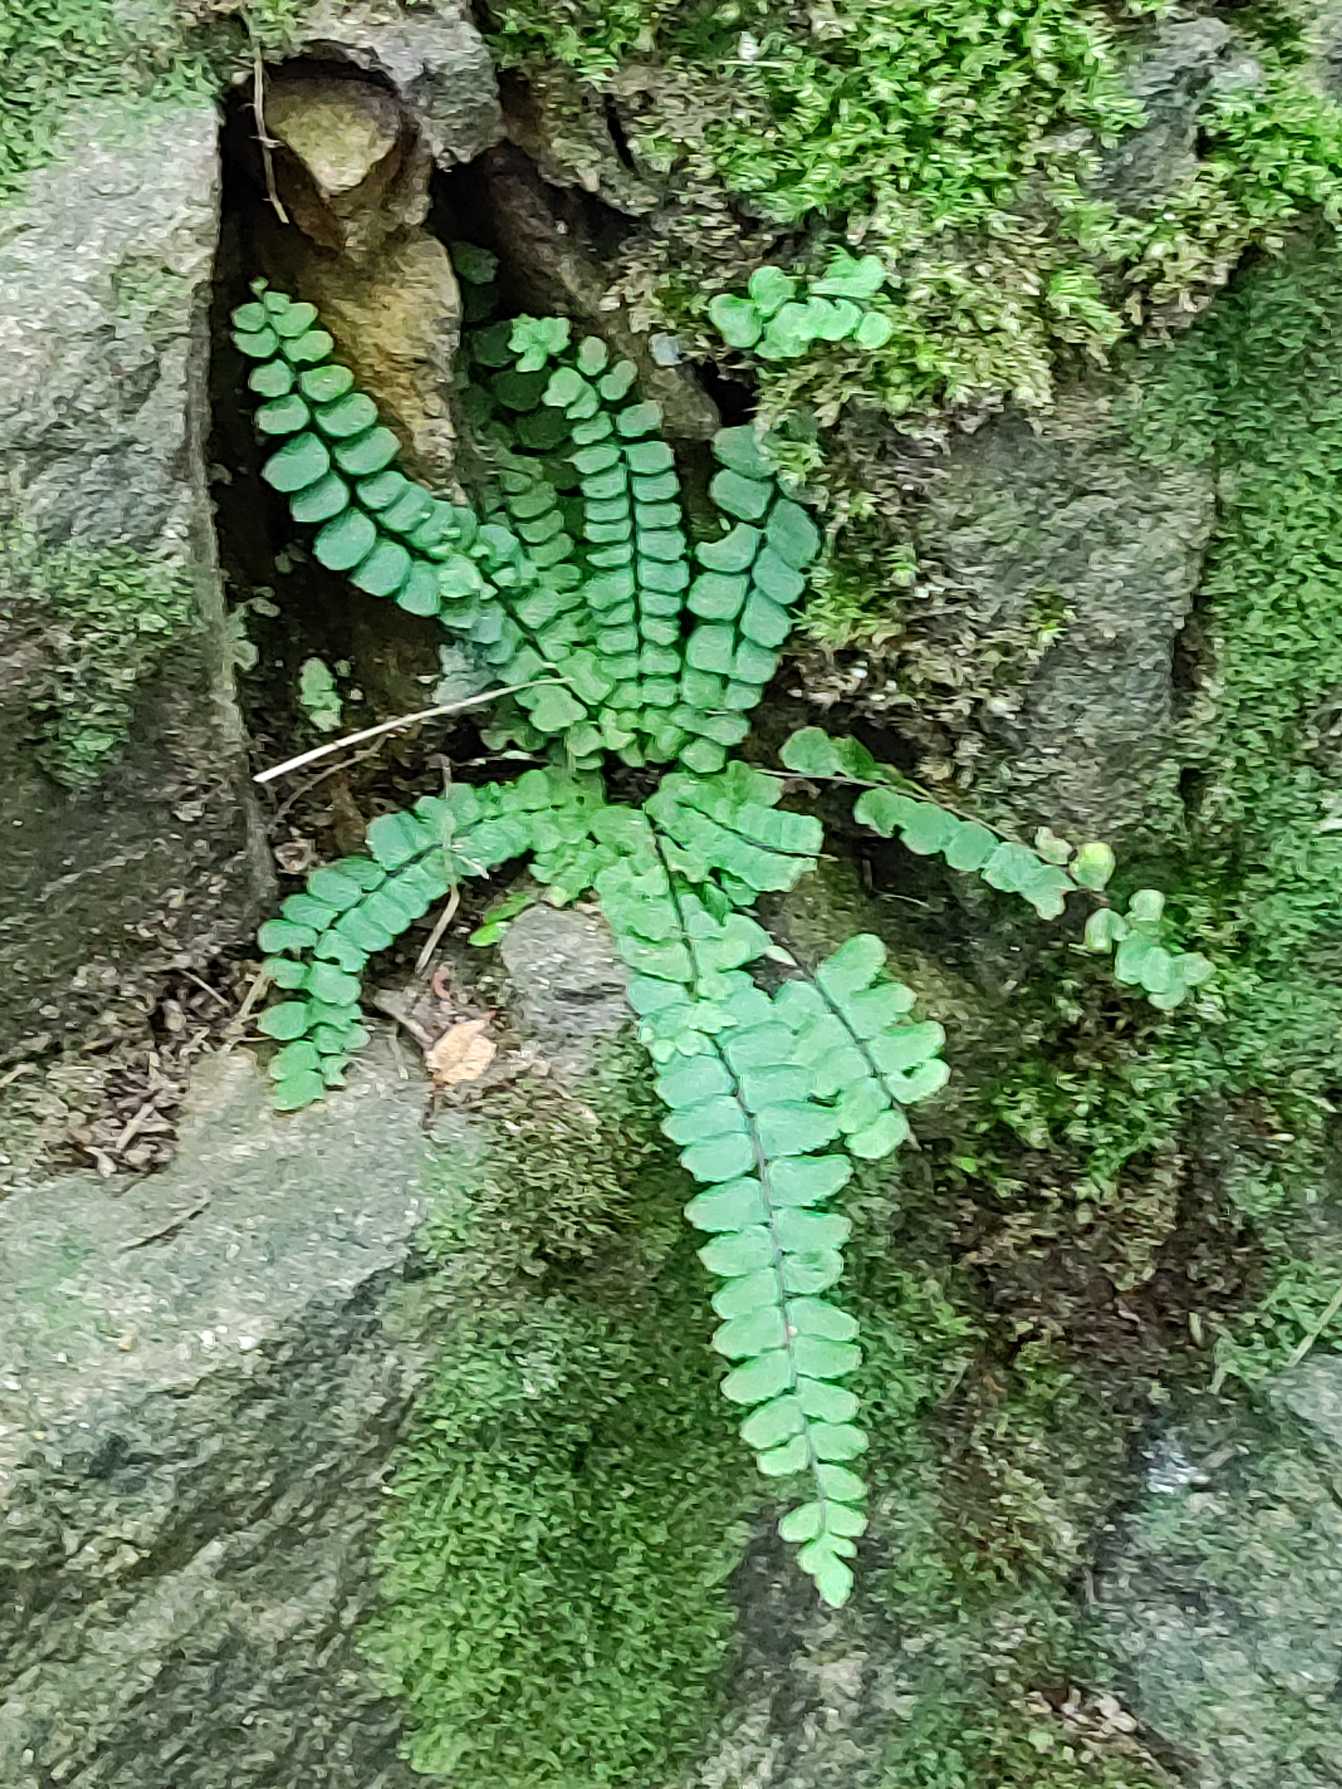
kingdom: Plantae
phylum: Tracheophyta
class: Polypodiopsida
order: Polypodiales
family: Aspleniaceae
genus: Asplenium
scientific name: Asplenium trichomanes
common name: Rundfinnet radeløv
